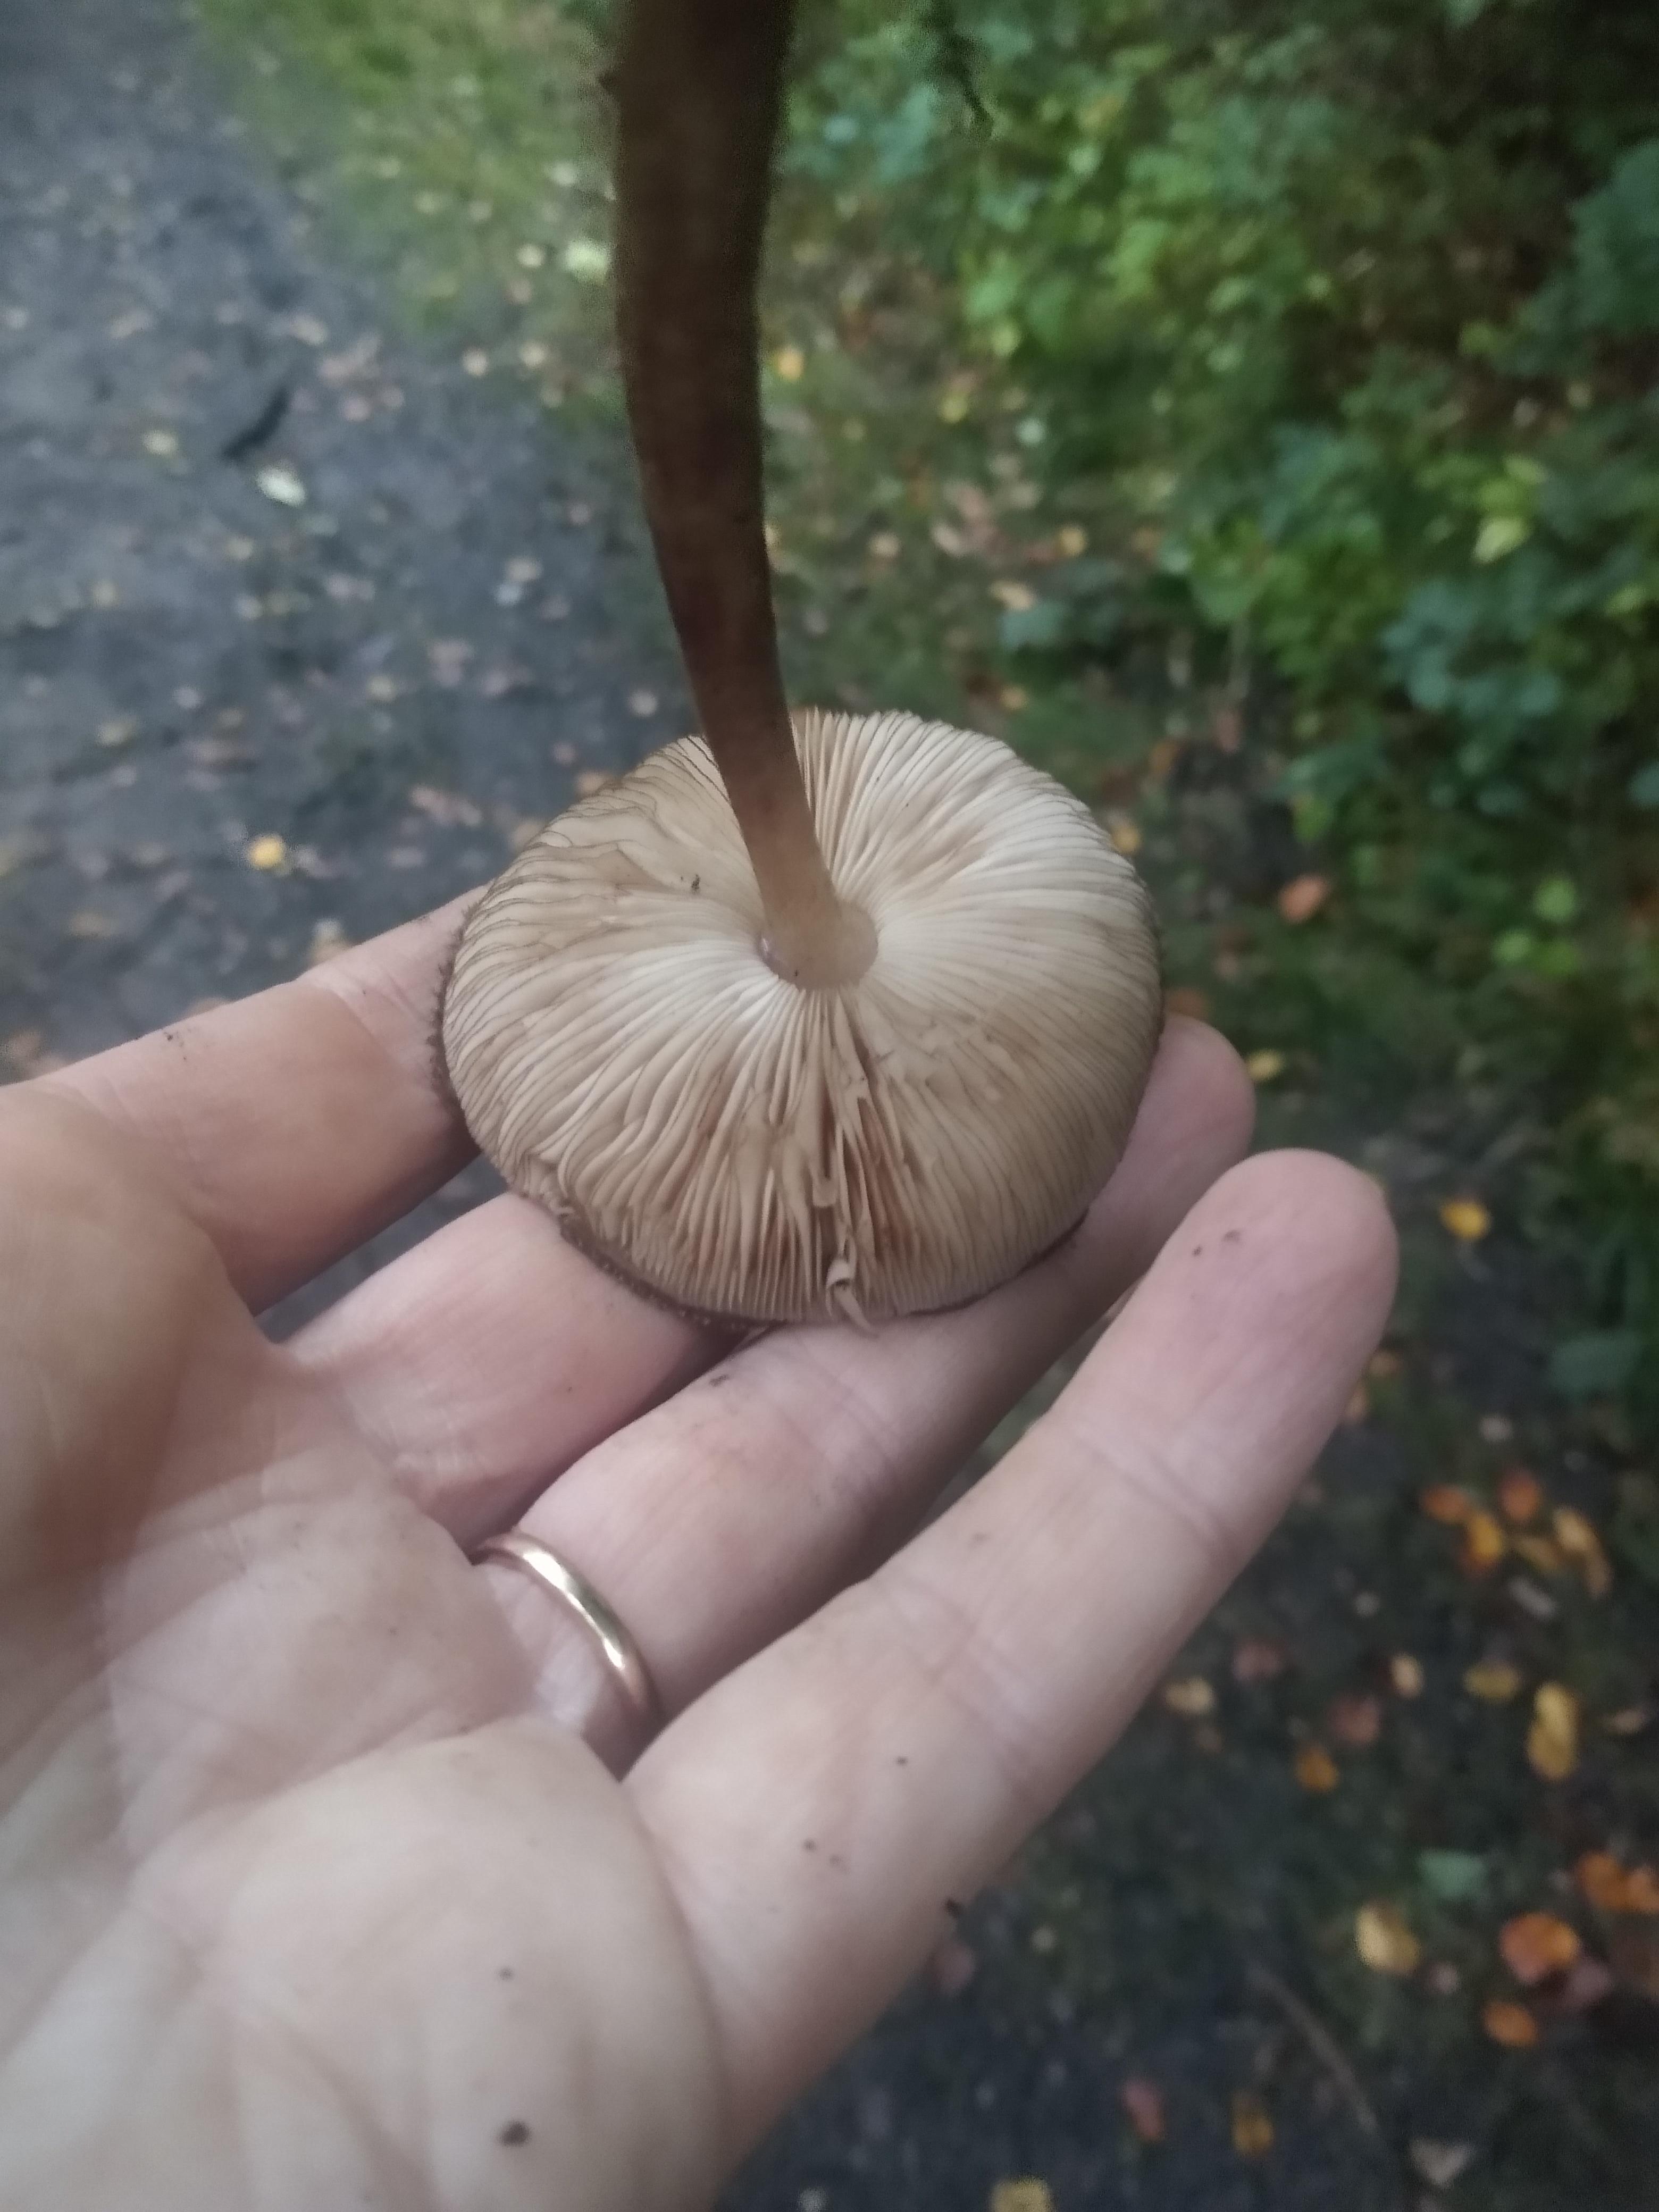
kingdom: Fungi
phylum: Basidiomycota
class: Agaricomycetes
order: Agaricales
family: Pluteaceae
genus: Pluteus
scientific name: Pluteus umbrosus
